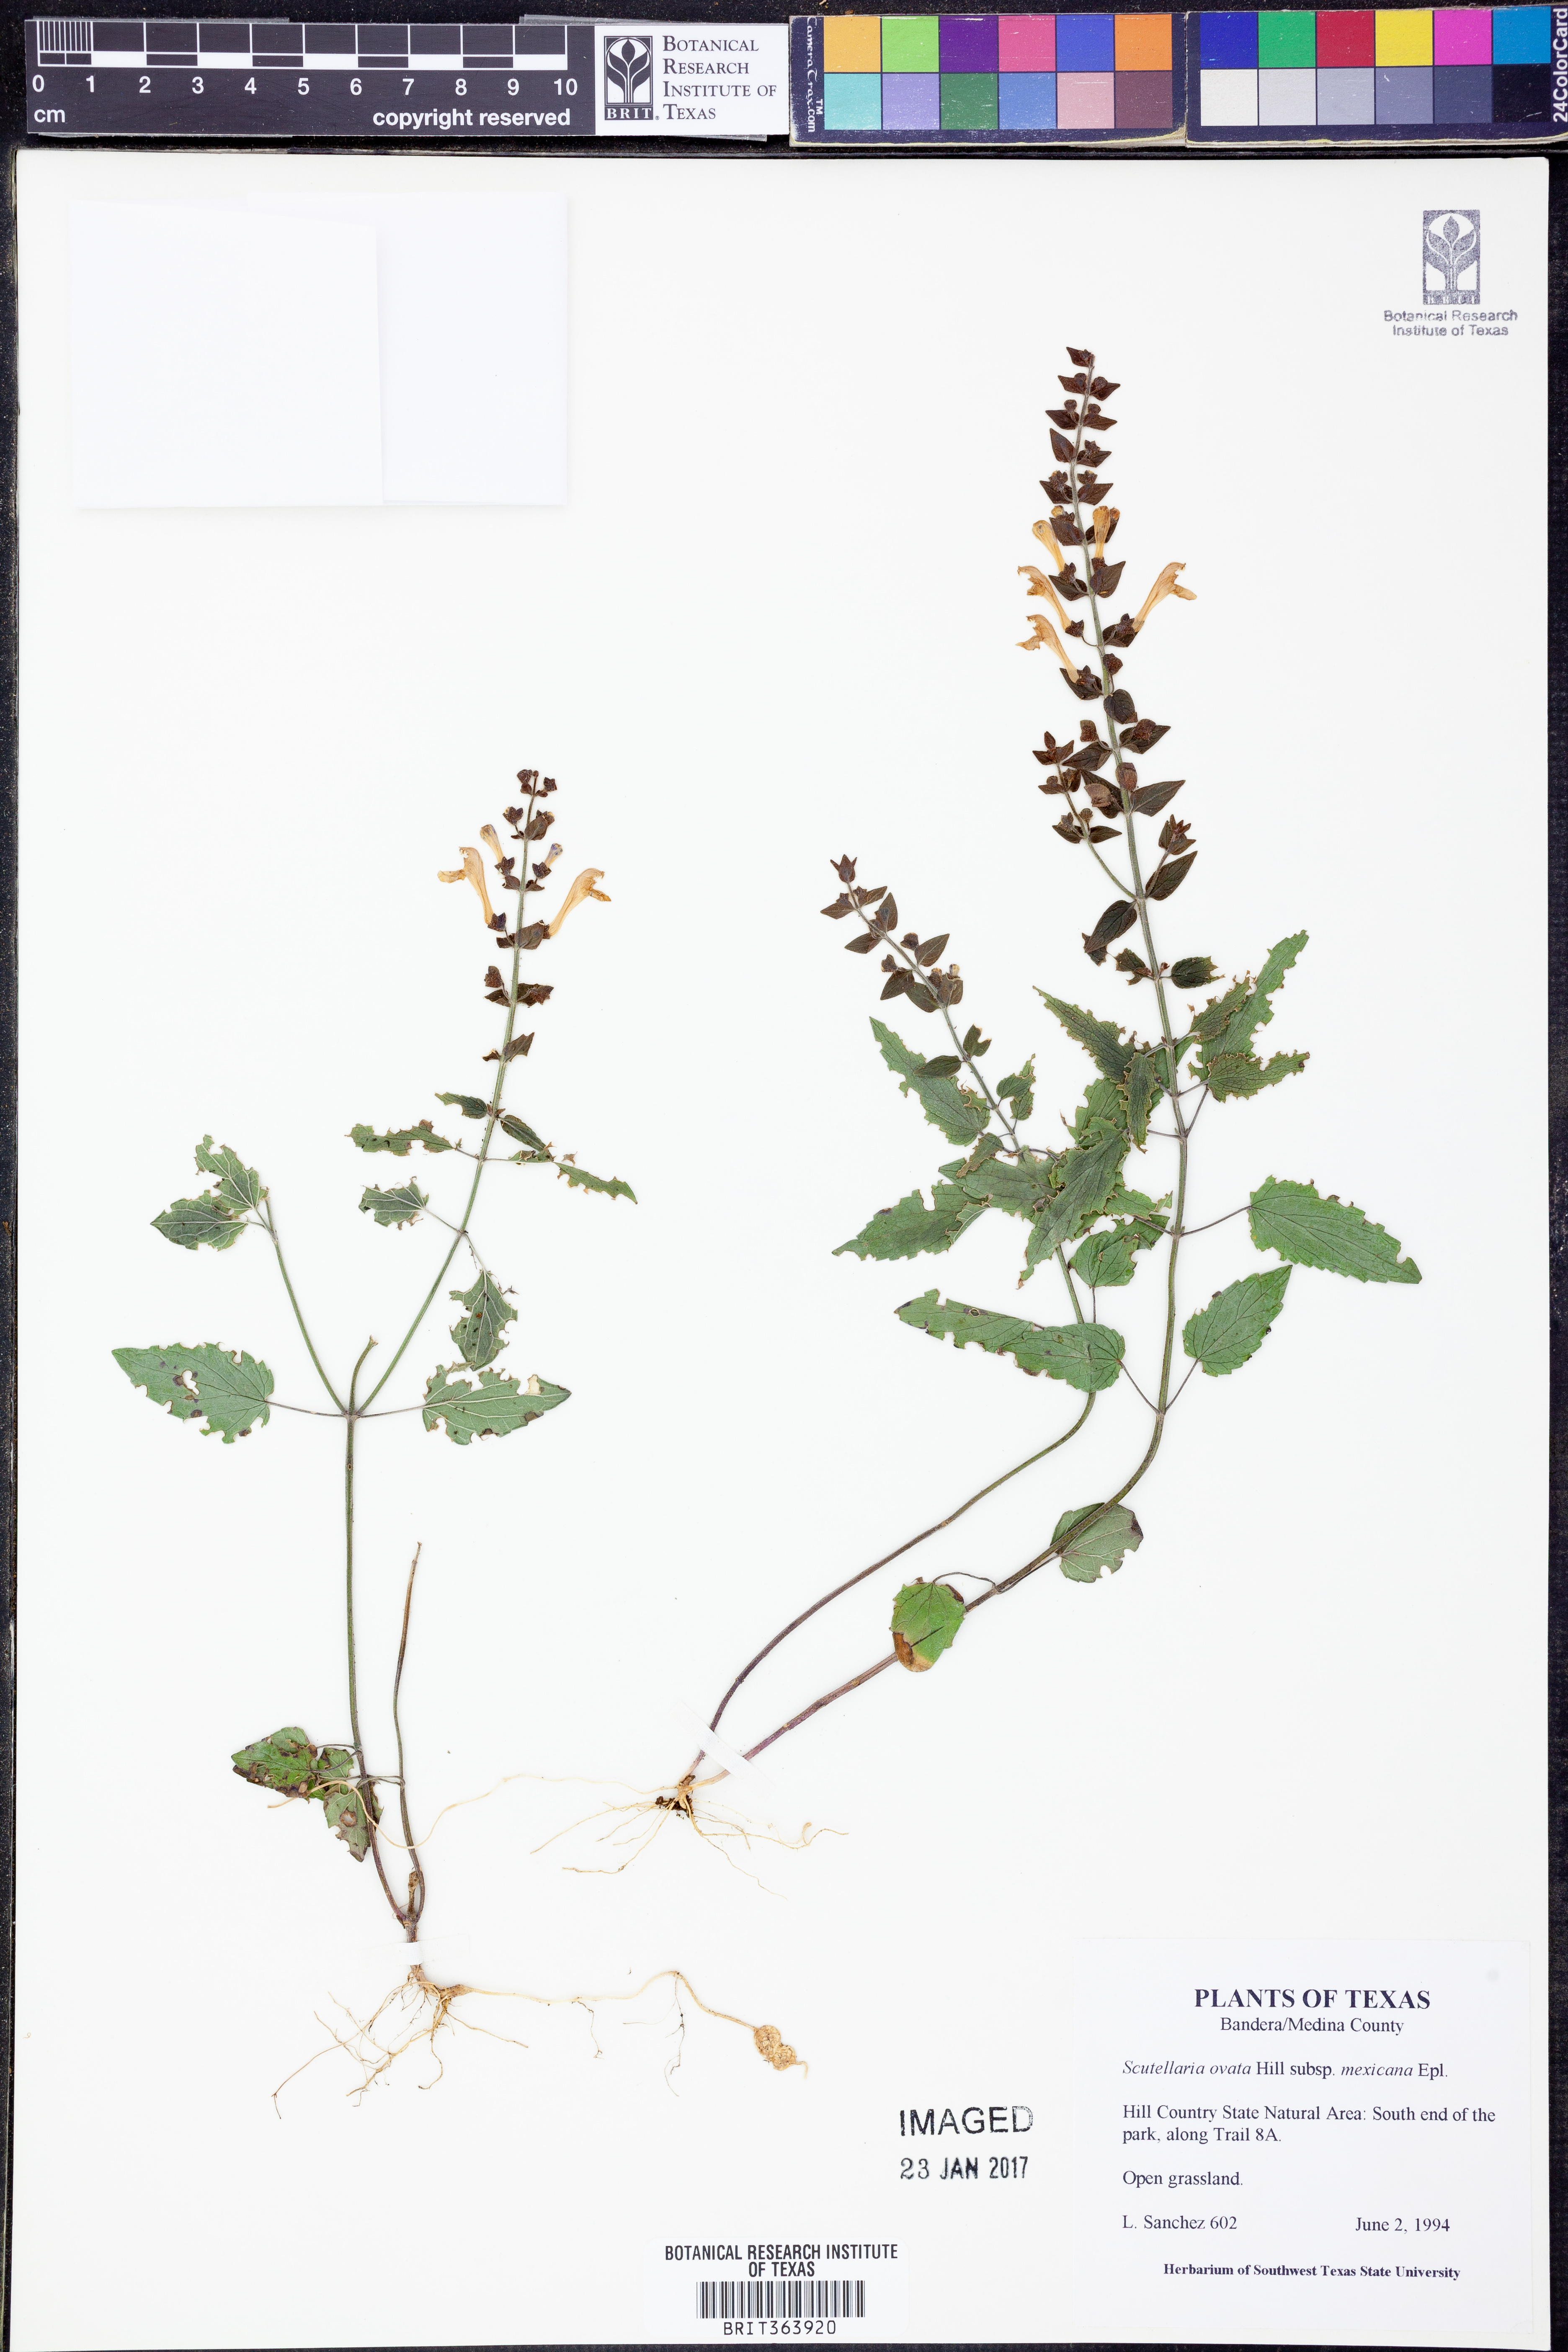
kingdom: Plantae
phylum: Tracheophyta
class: Magnoliopsida
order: Lamiales
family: Lamiaceae
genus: Scutellaria
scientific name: Scutellaria ovata
